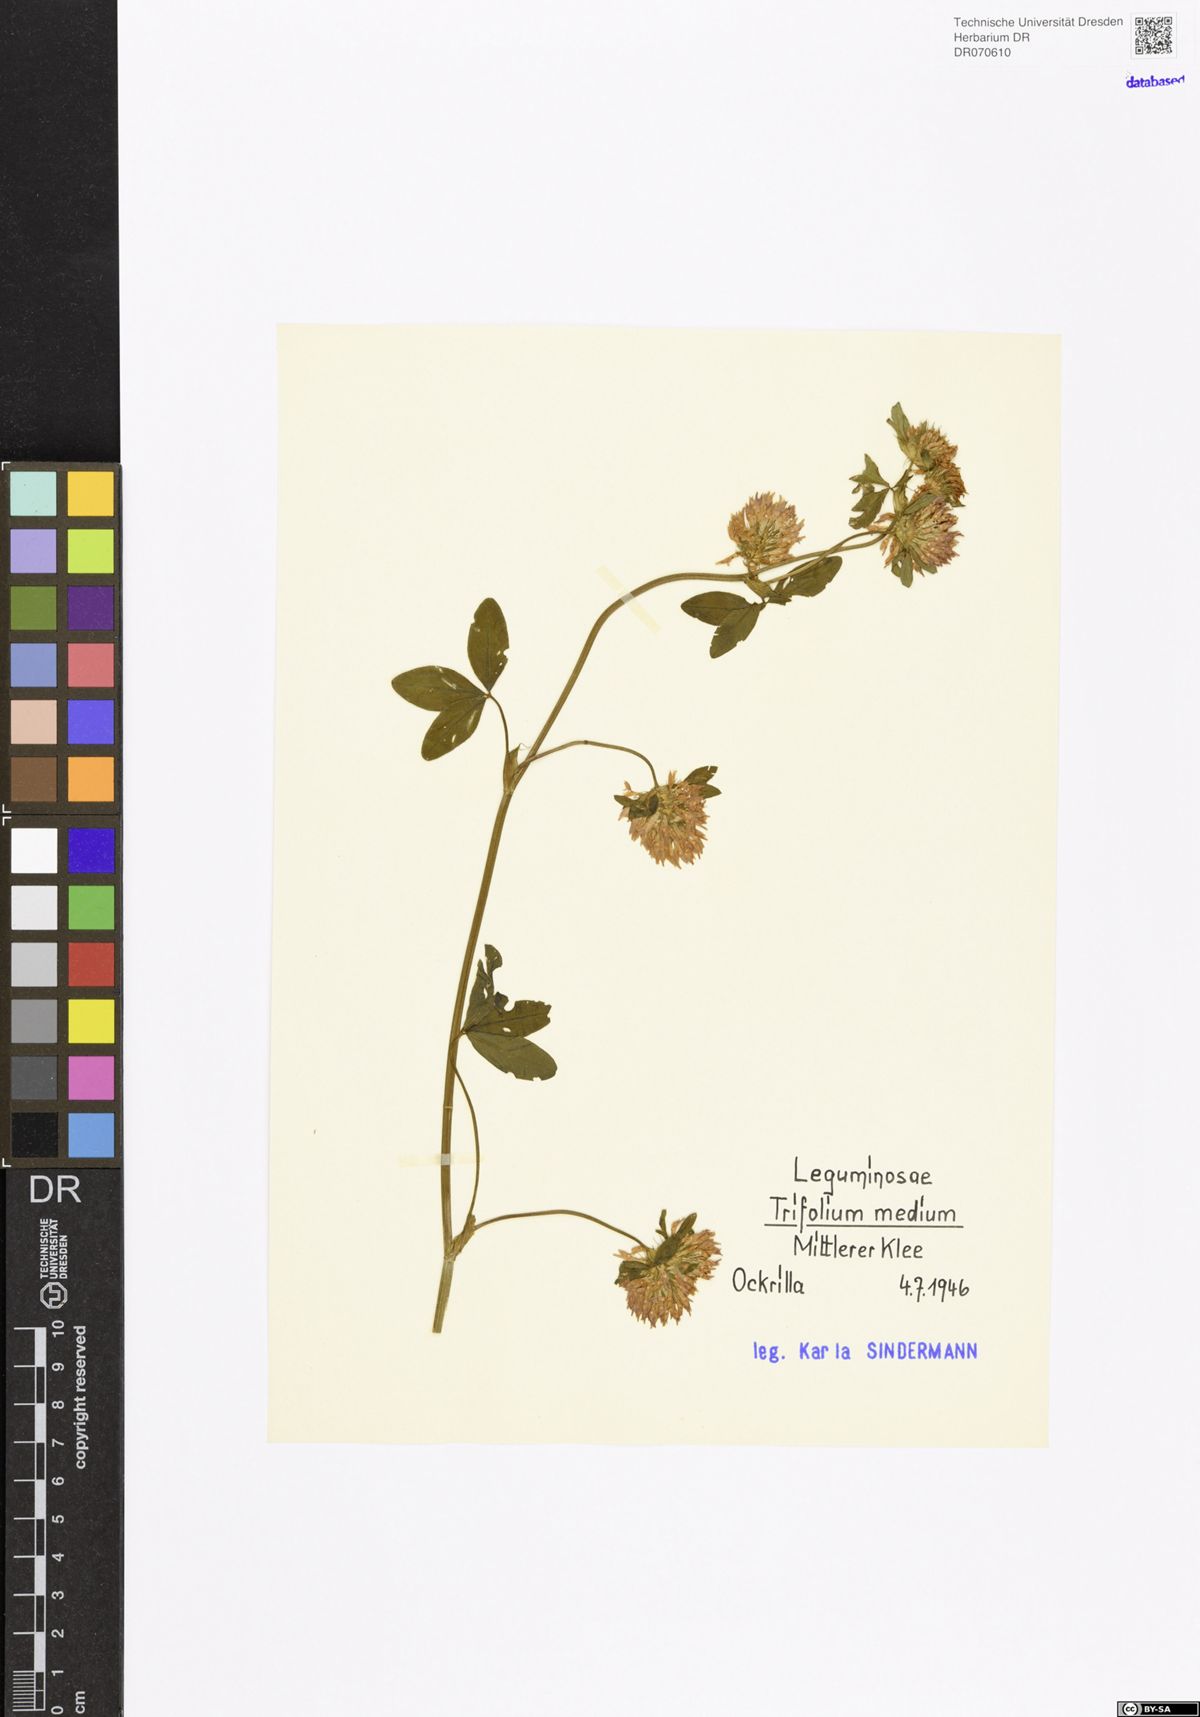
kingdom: Plantae
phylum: Tracheophyta
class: Magnoliopsida
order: Fabales
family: Fabaceae
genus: Trifolium
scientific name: Trifolium medium
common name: Zigzag clover
